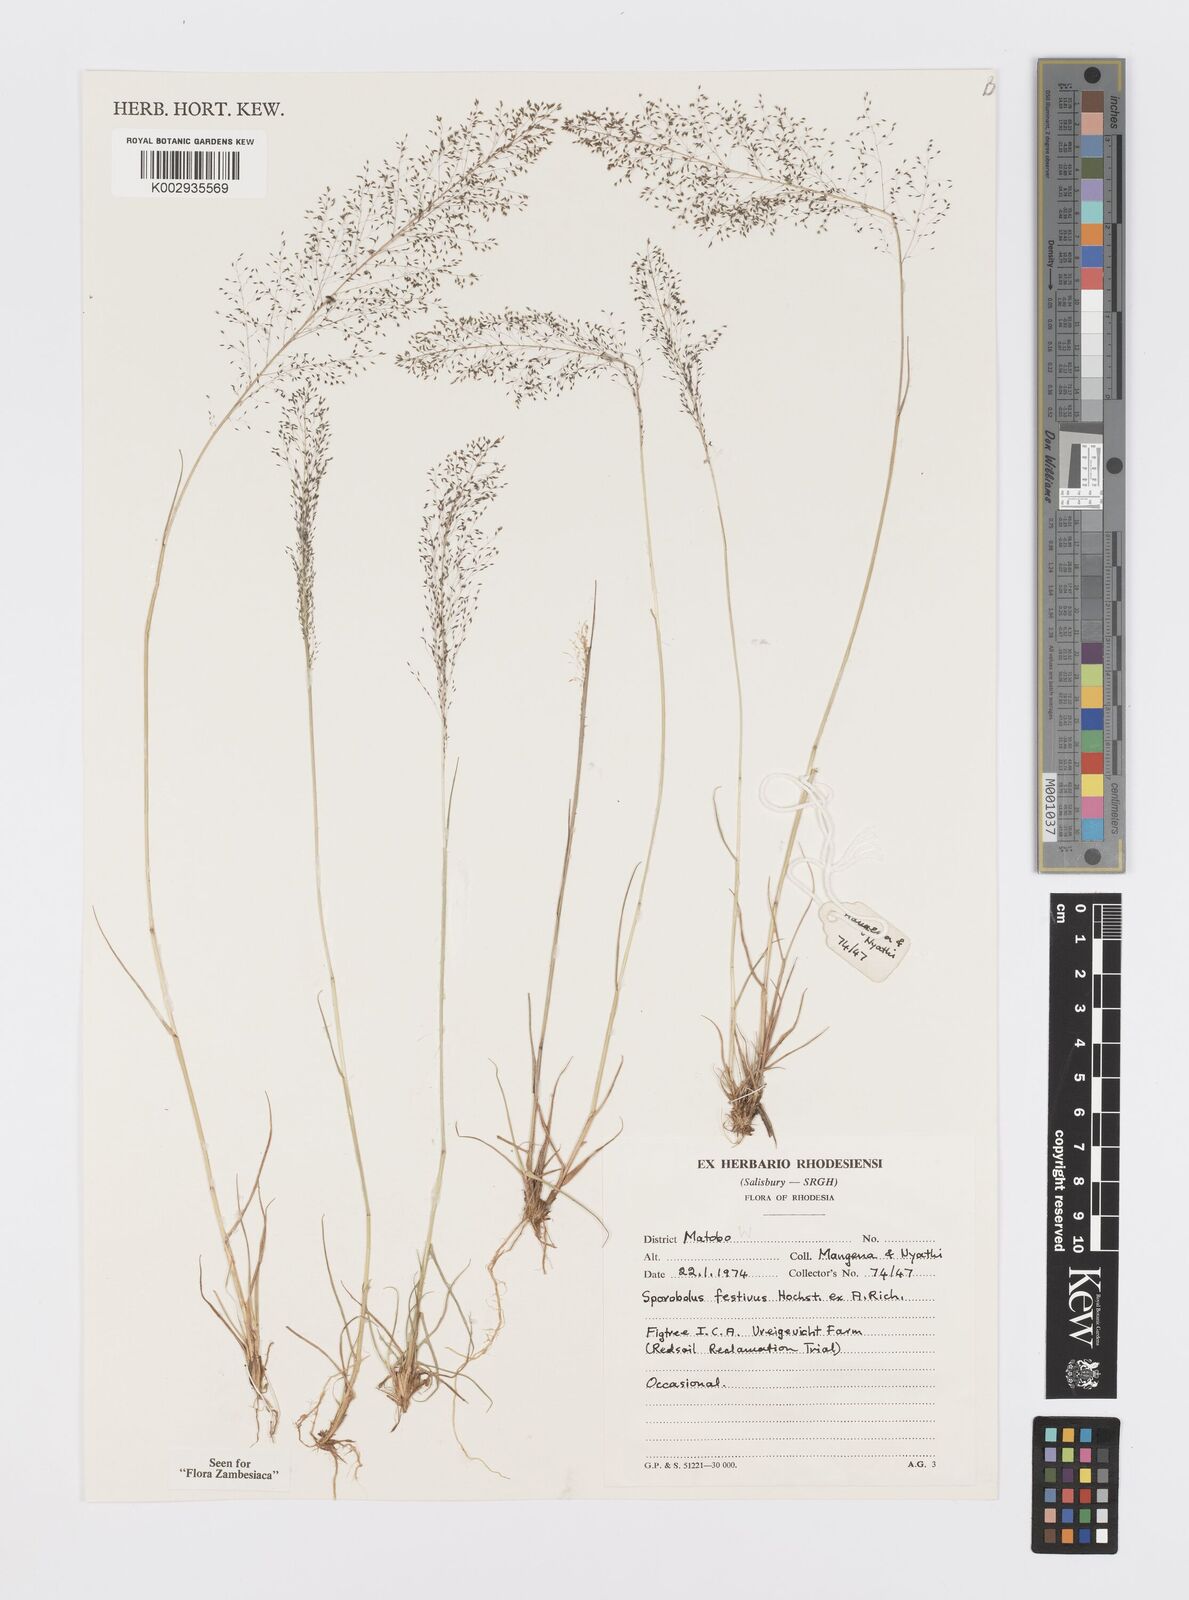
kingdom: Plantae
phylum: Tracheophyta
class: Liliopsida
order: Poales
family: Poaceae
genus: Sporobolus
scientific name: Sporobolus festivus
